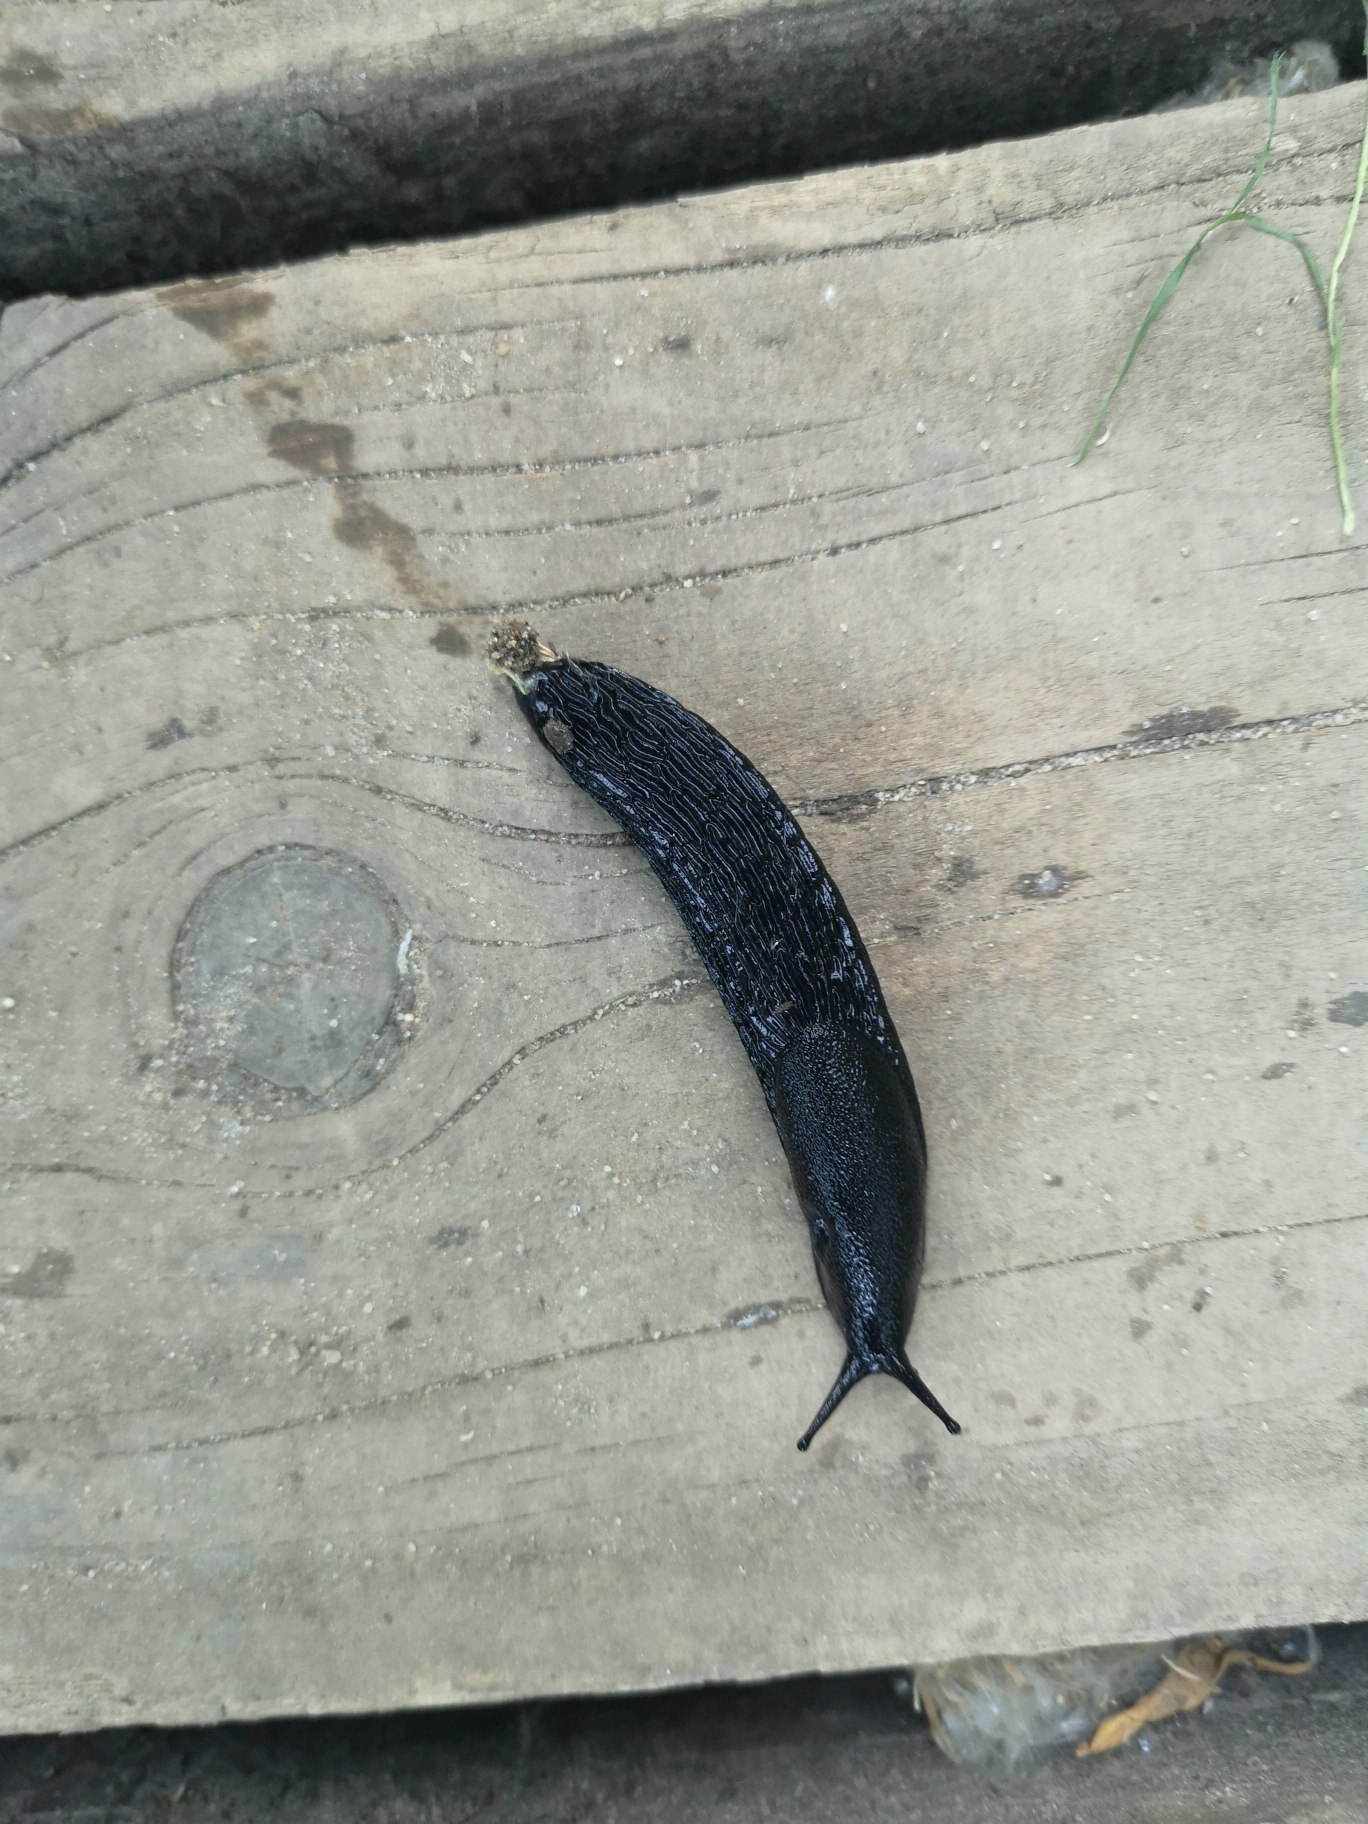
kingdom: Animalia
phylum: Mollusca
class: Gastropoda
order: Stylommatophora
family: Arionidae
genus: Arion
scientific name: Arion ater
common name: Sort skovsnegl
